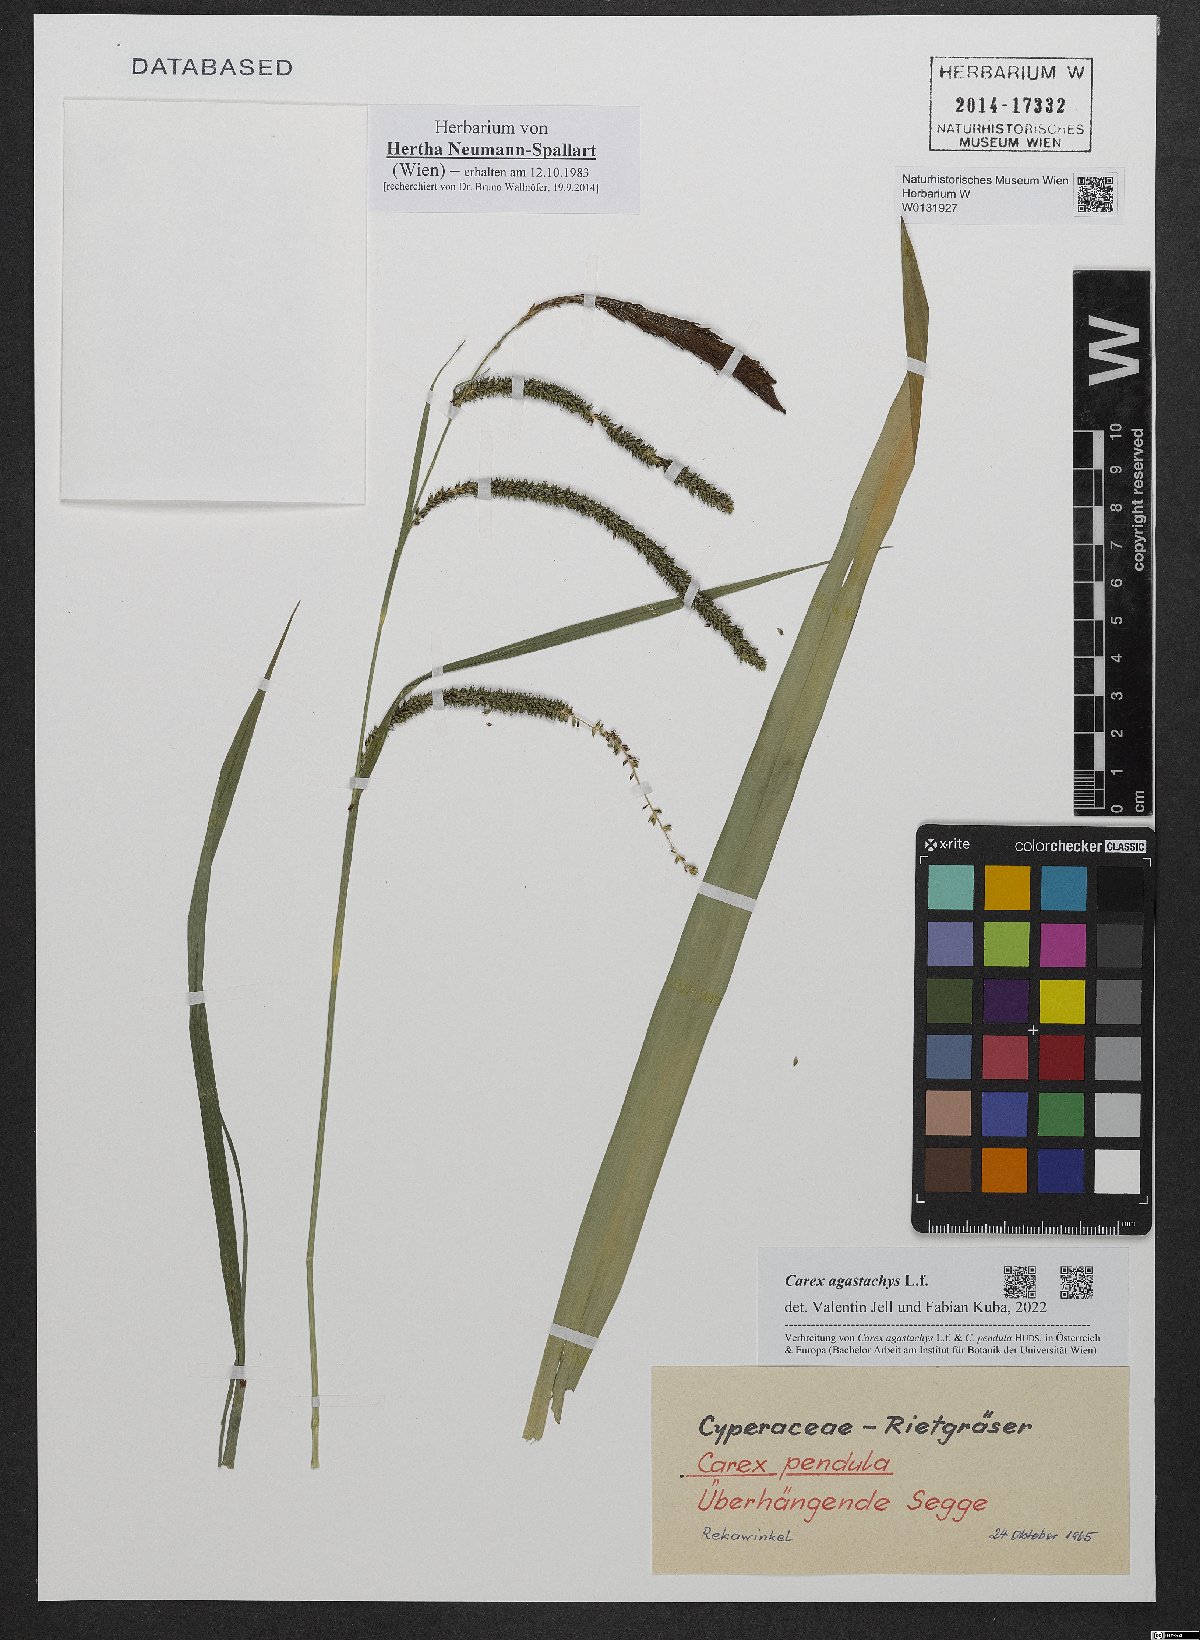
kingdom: Plantae
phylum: Tracheophyta
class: Liliopsida
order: Poales
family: Cyperaceae
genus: Carex
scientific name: Carex agastachys
